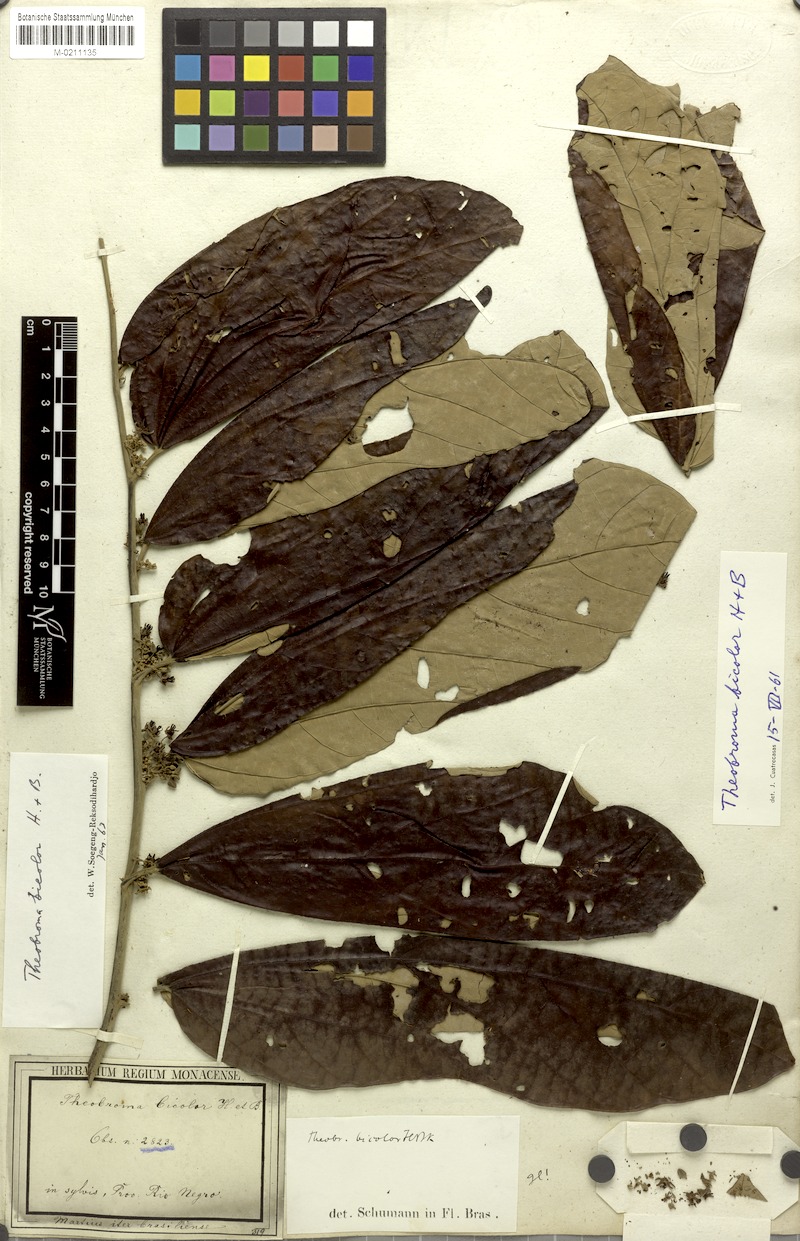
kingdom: Plantae
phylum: Tracheophyta
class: Magnoliopsida
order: Malvales
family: Malvaceae
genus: Theobroma
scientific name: Theobroma bicolor
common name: Macambo tree
